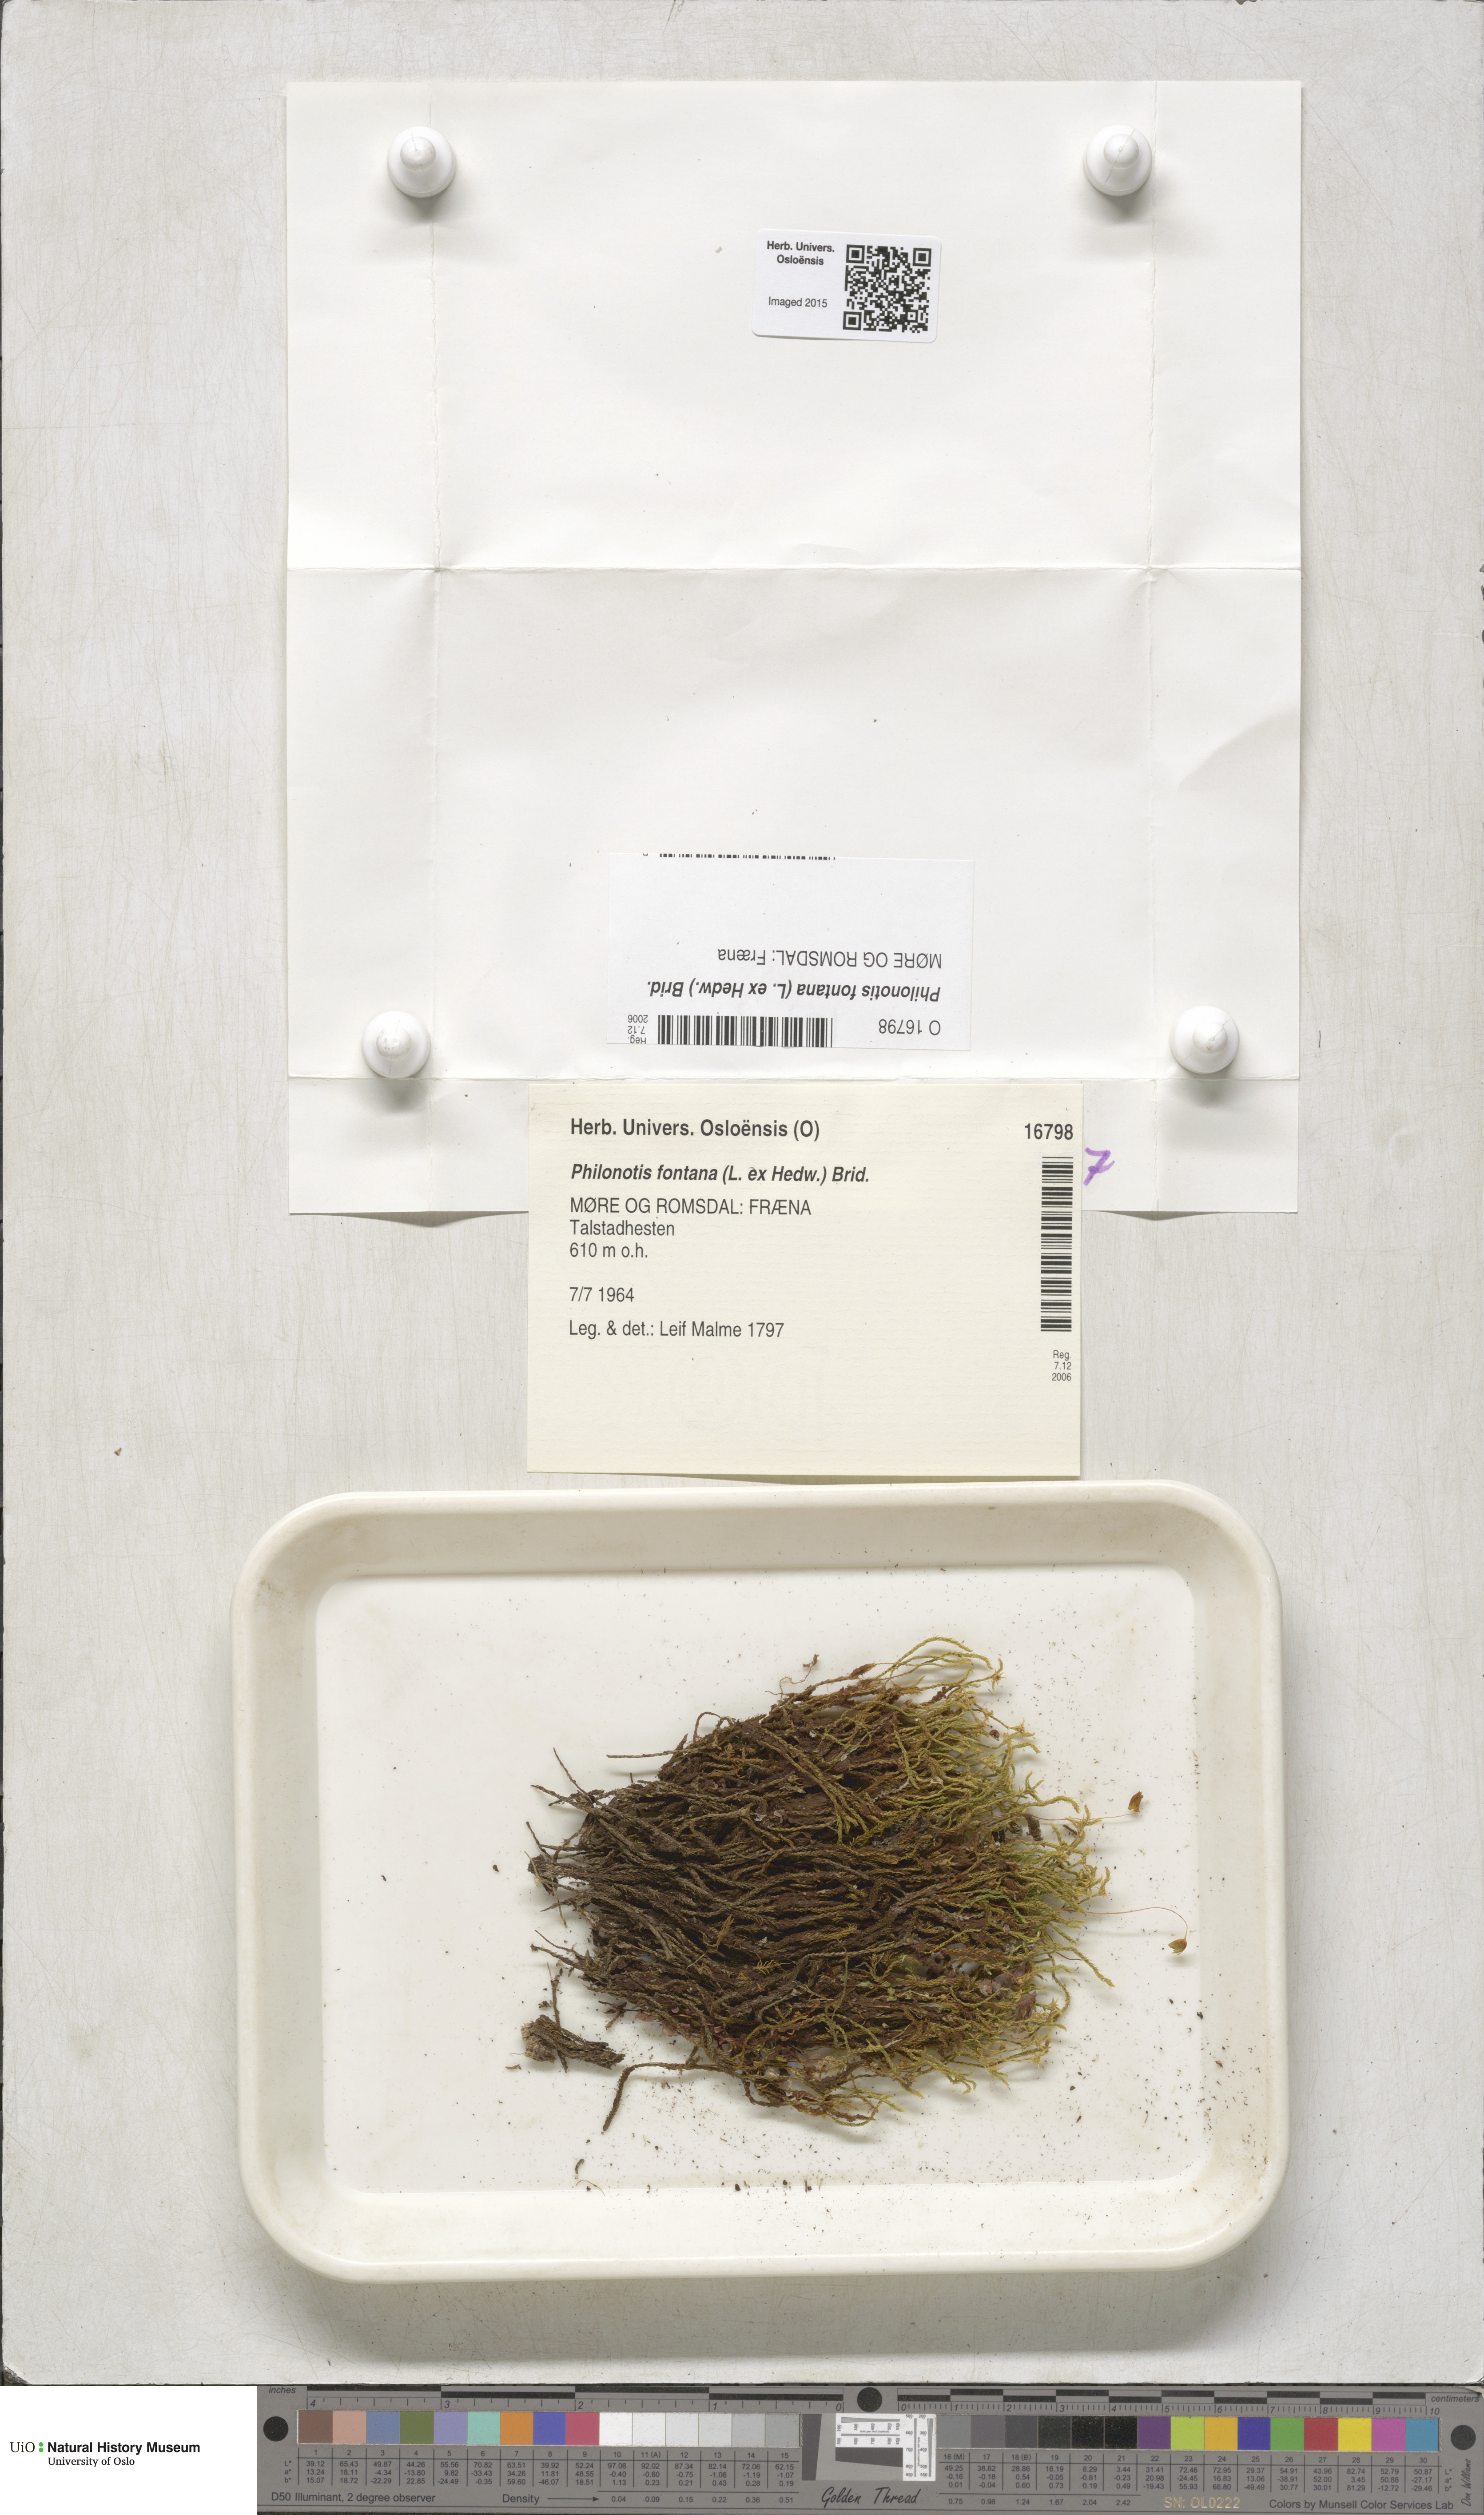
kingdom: Plantae
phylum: Bryophyta
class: Bryopsida
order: Bartramiales
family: Bartramiaceae
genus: Philonotis
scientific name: Philonotis fontana
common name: Fountain apple-moss
